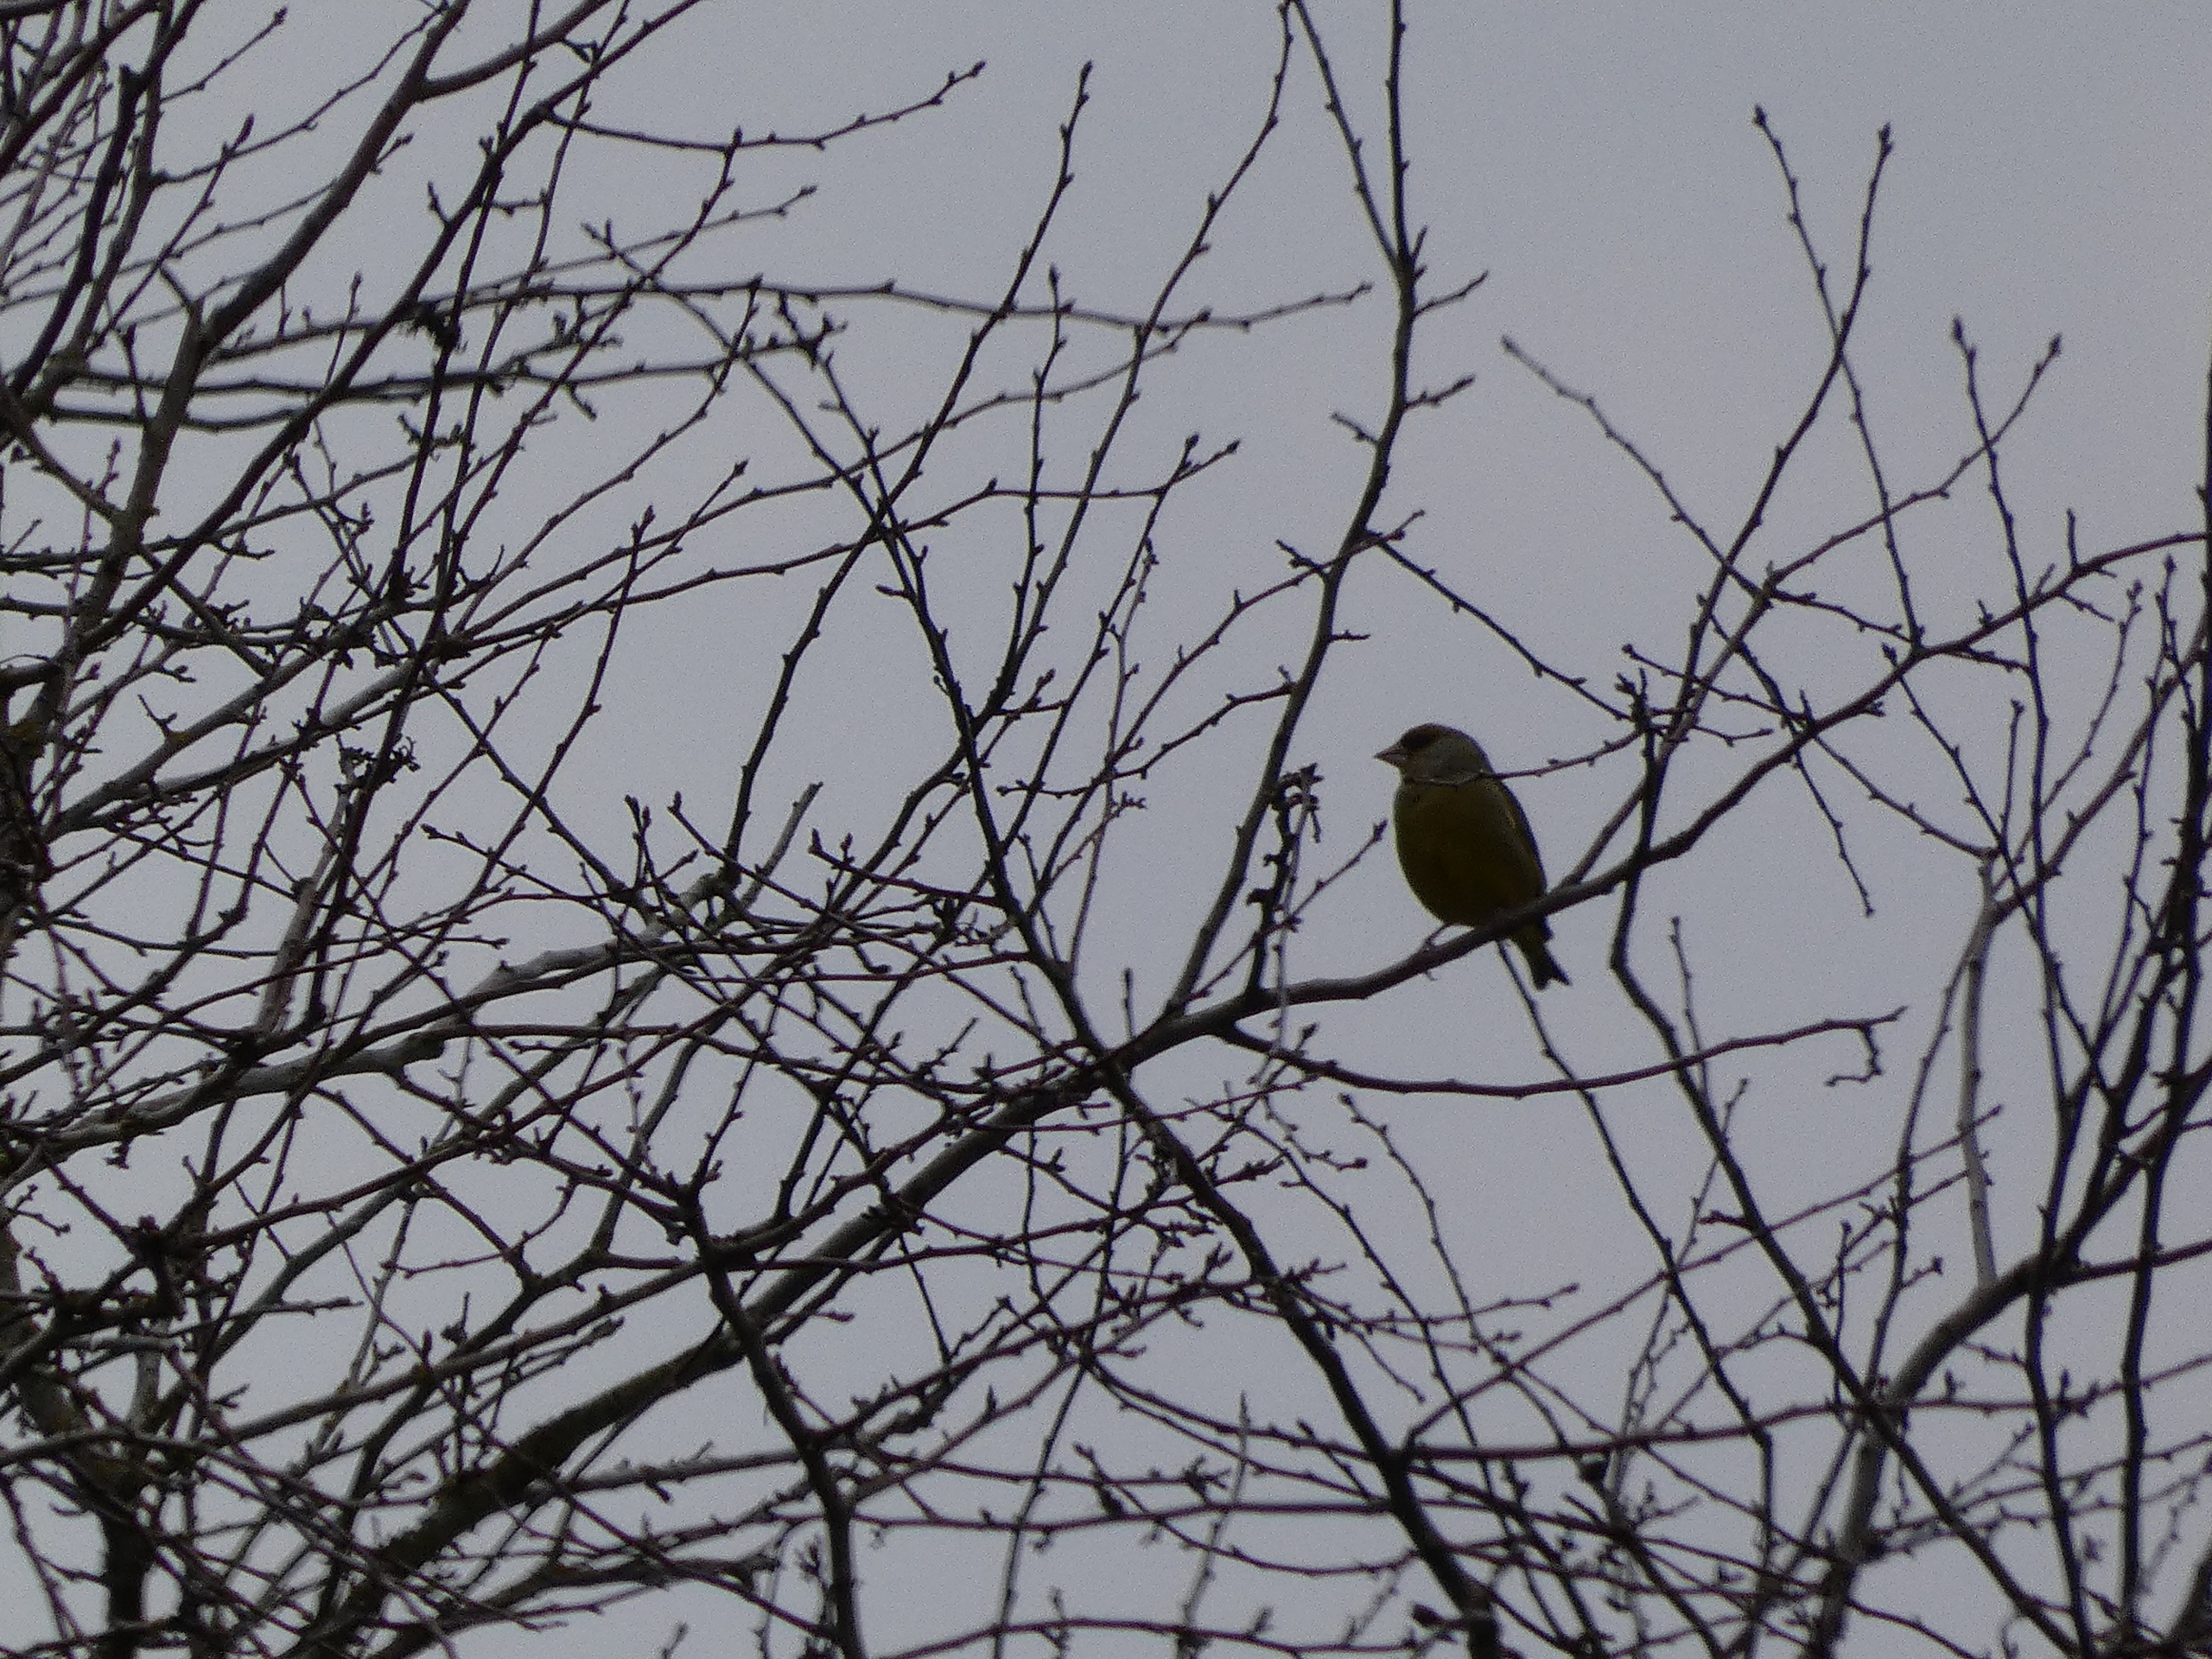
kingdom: Plantae
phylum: Tracheophyta
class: Liliopsida
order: Poales
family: Poaceae
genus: Chloris
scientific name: Chloris chloris
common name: Grønirisk
